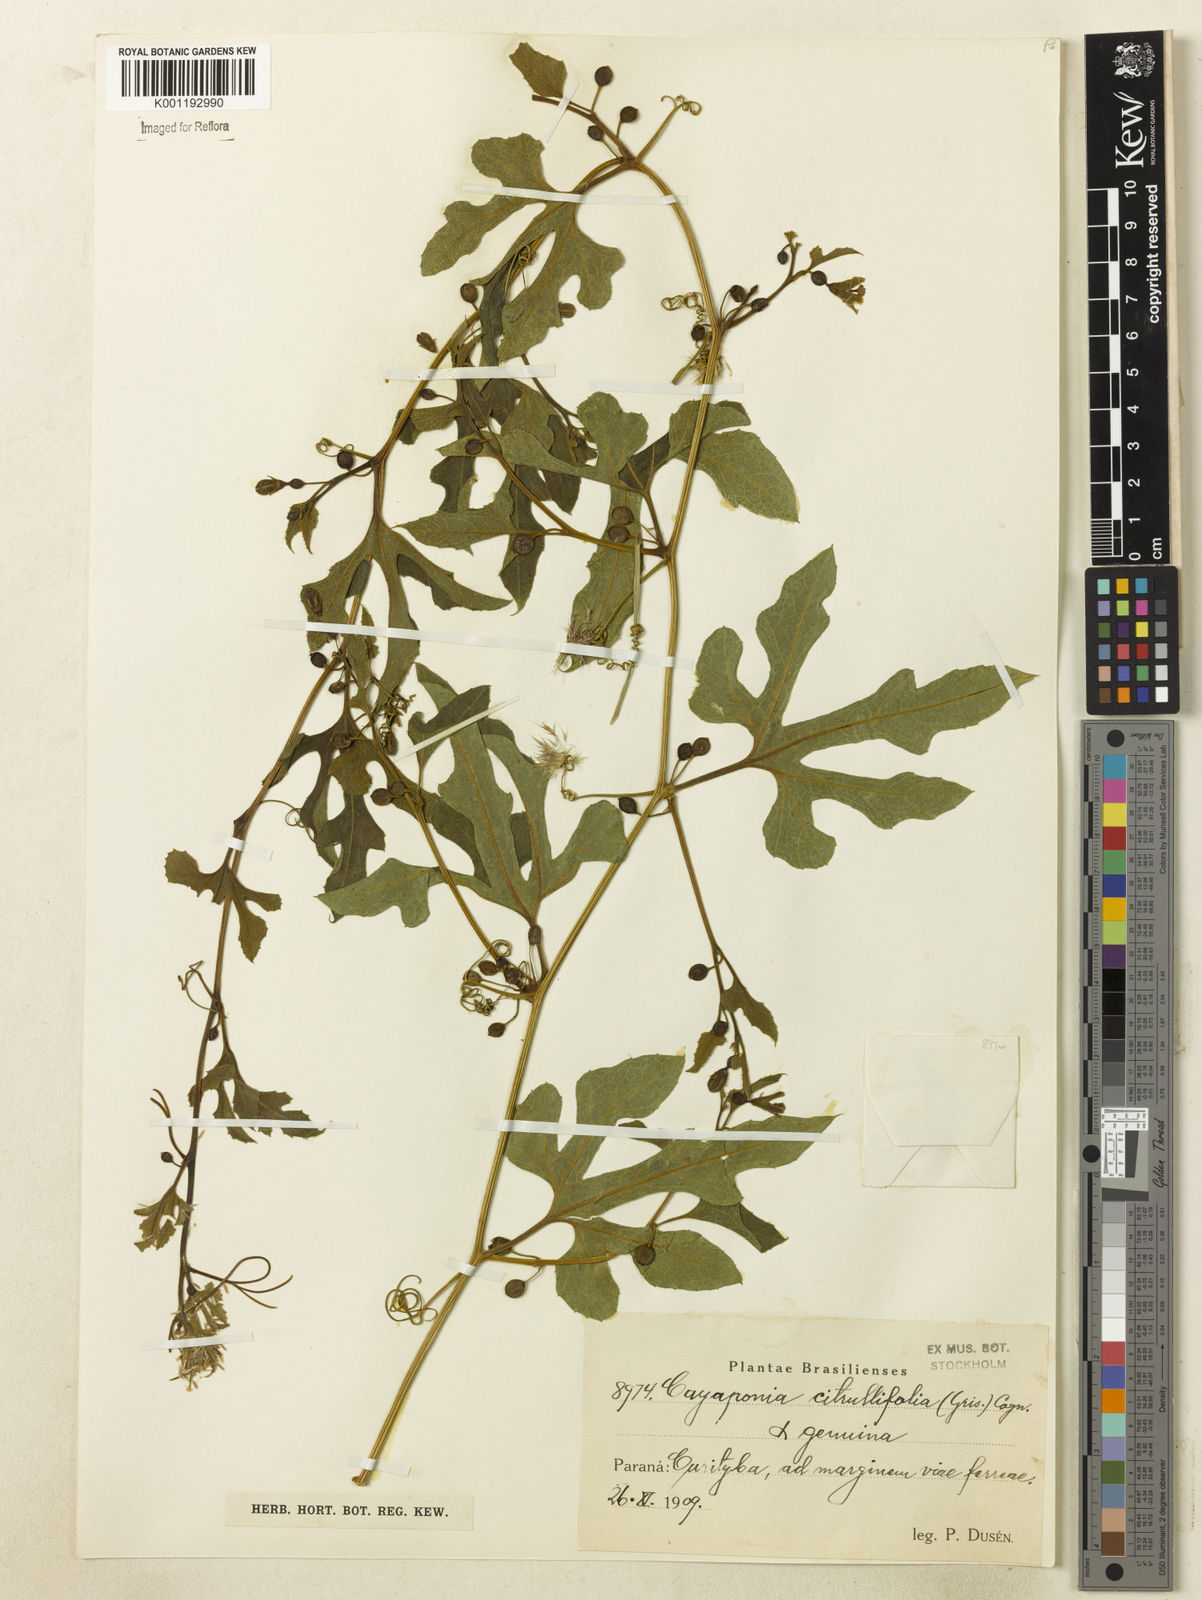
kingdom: Plantae
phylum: Tracheophyta
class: Magnoliopsida
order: Cucurbitales
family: Cucurbitaceae
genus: Cayaponia
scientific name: Cayaponia bonariensis
